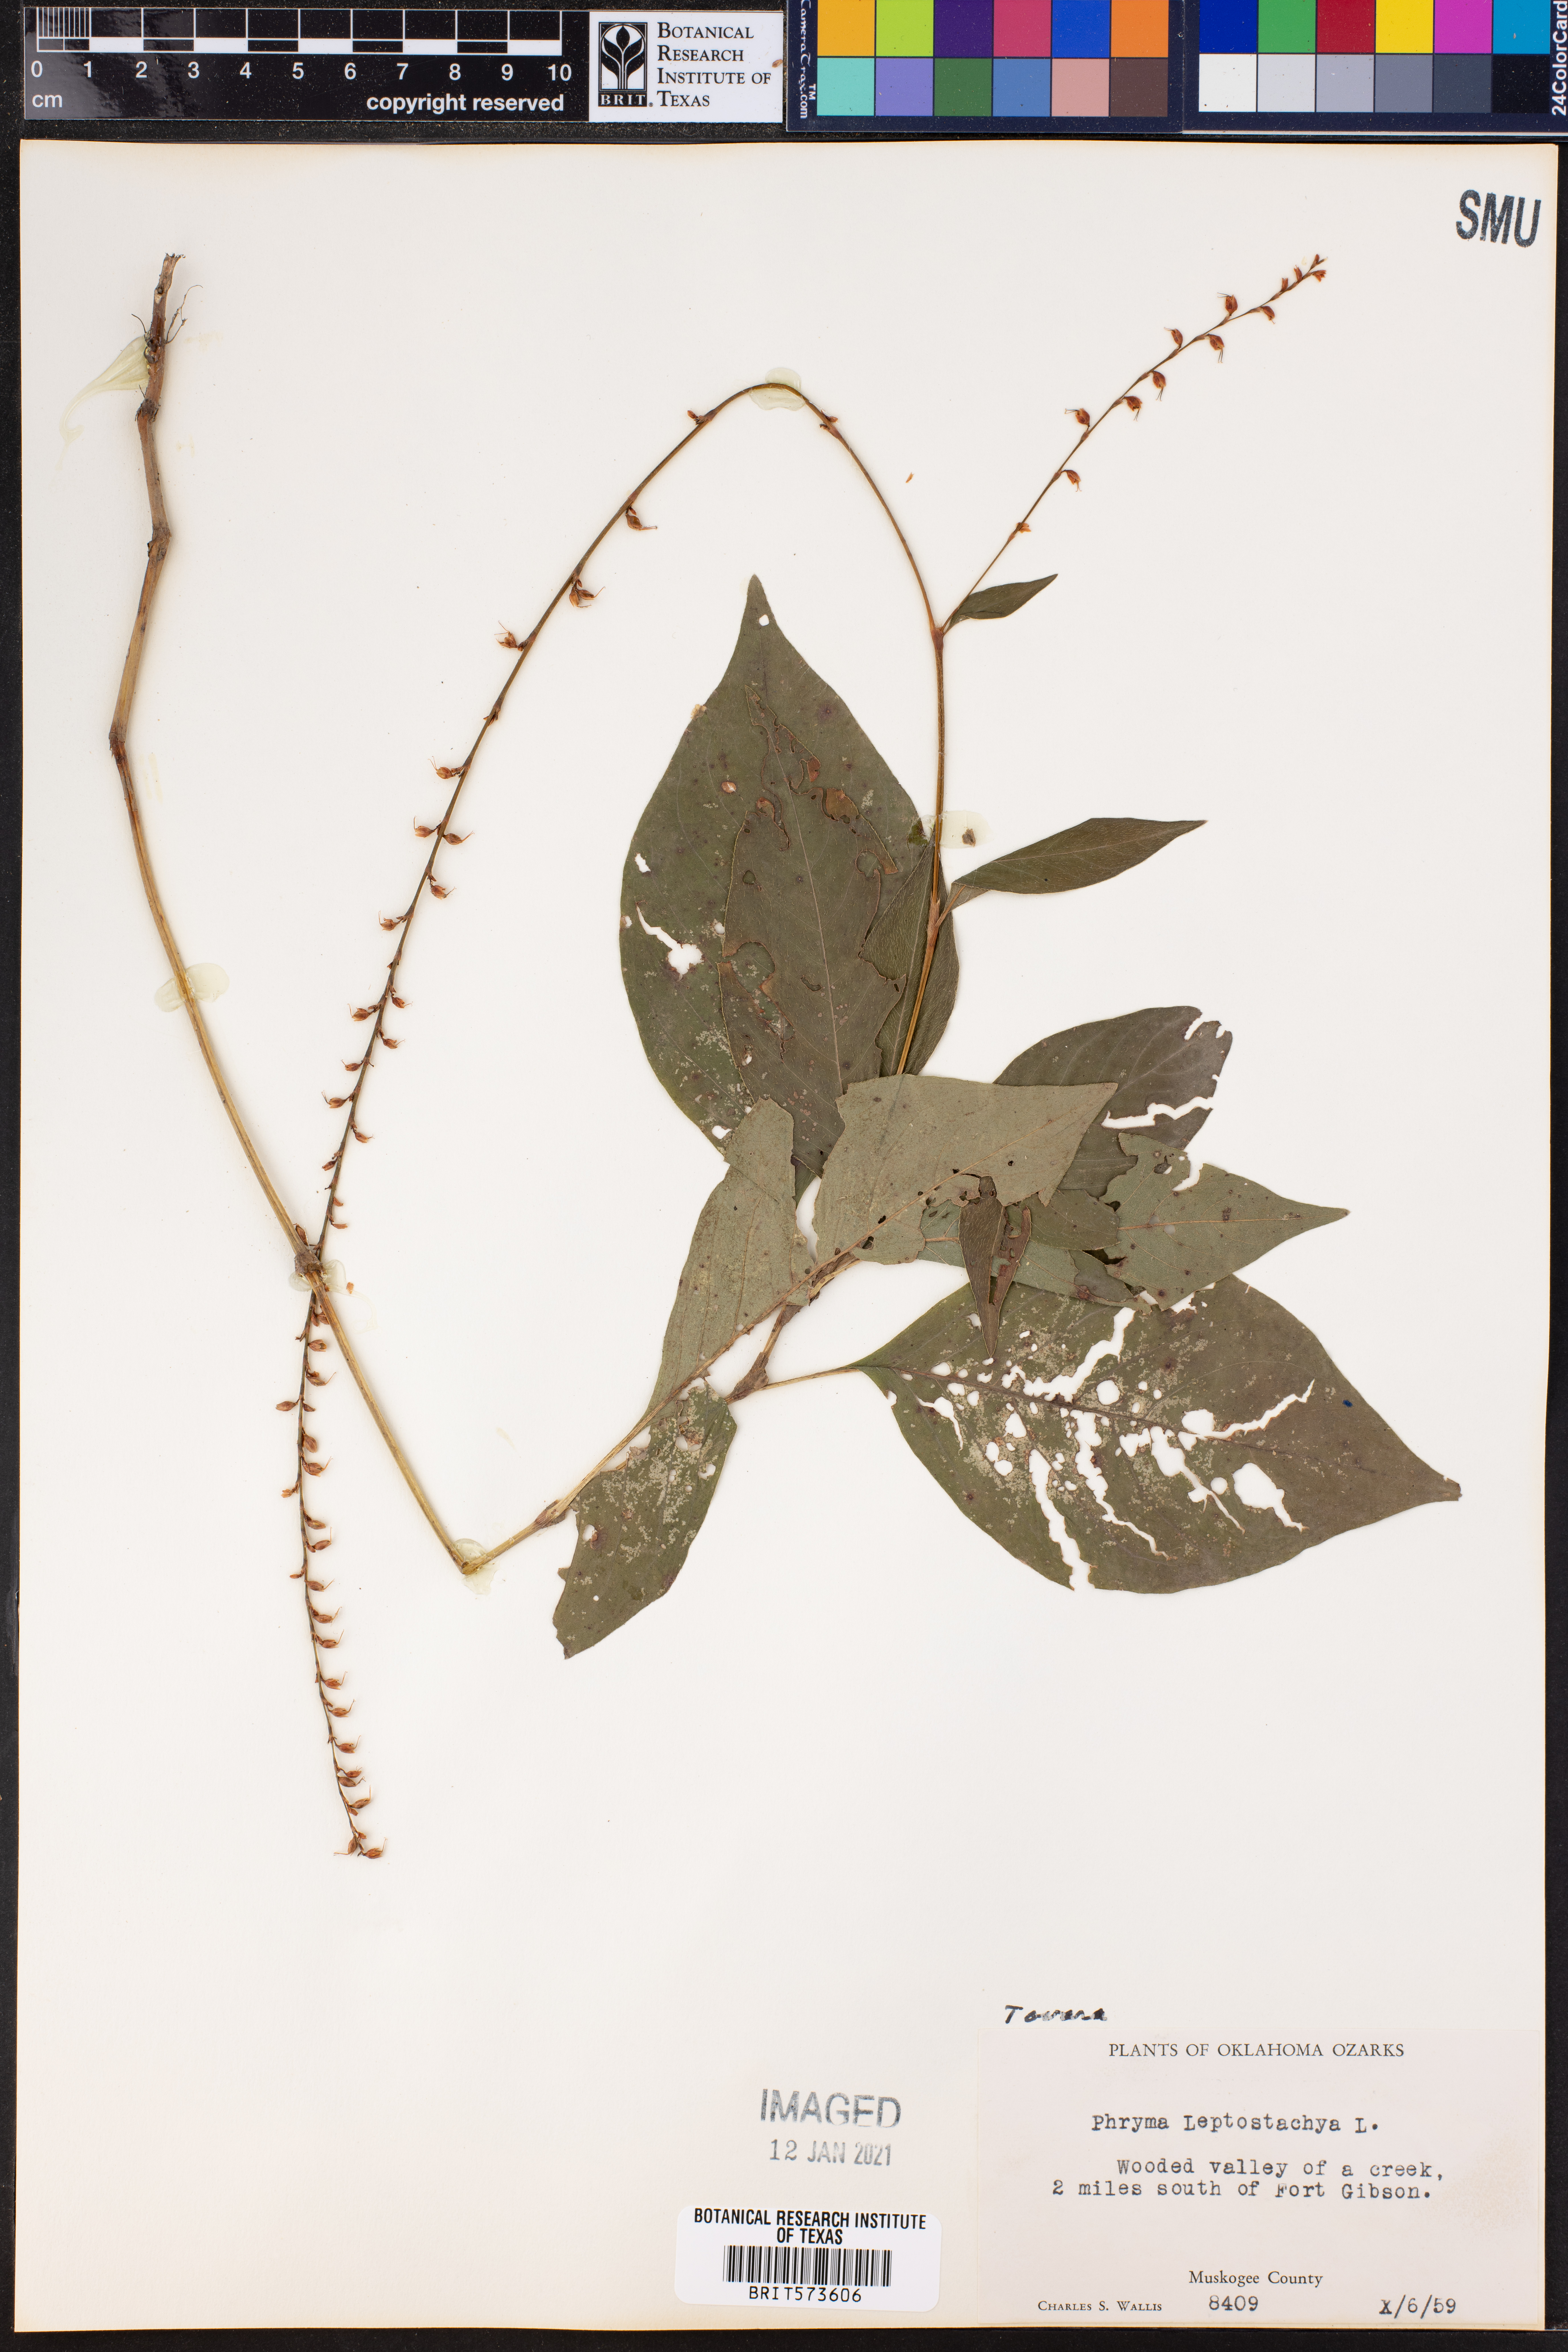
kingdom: Plantae
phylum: Tracheophyta
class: Magnoliopsida
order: Caryophyllales
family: Polygonaceae
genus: Persicaria
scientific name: Persicaria
